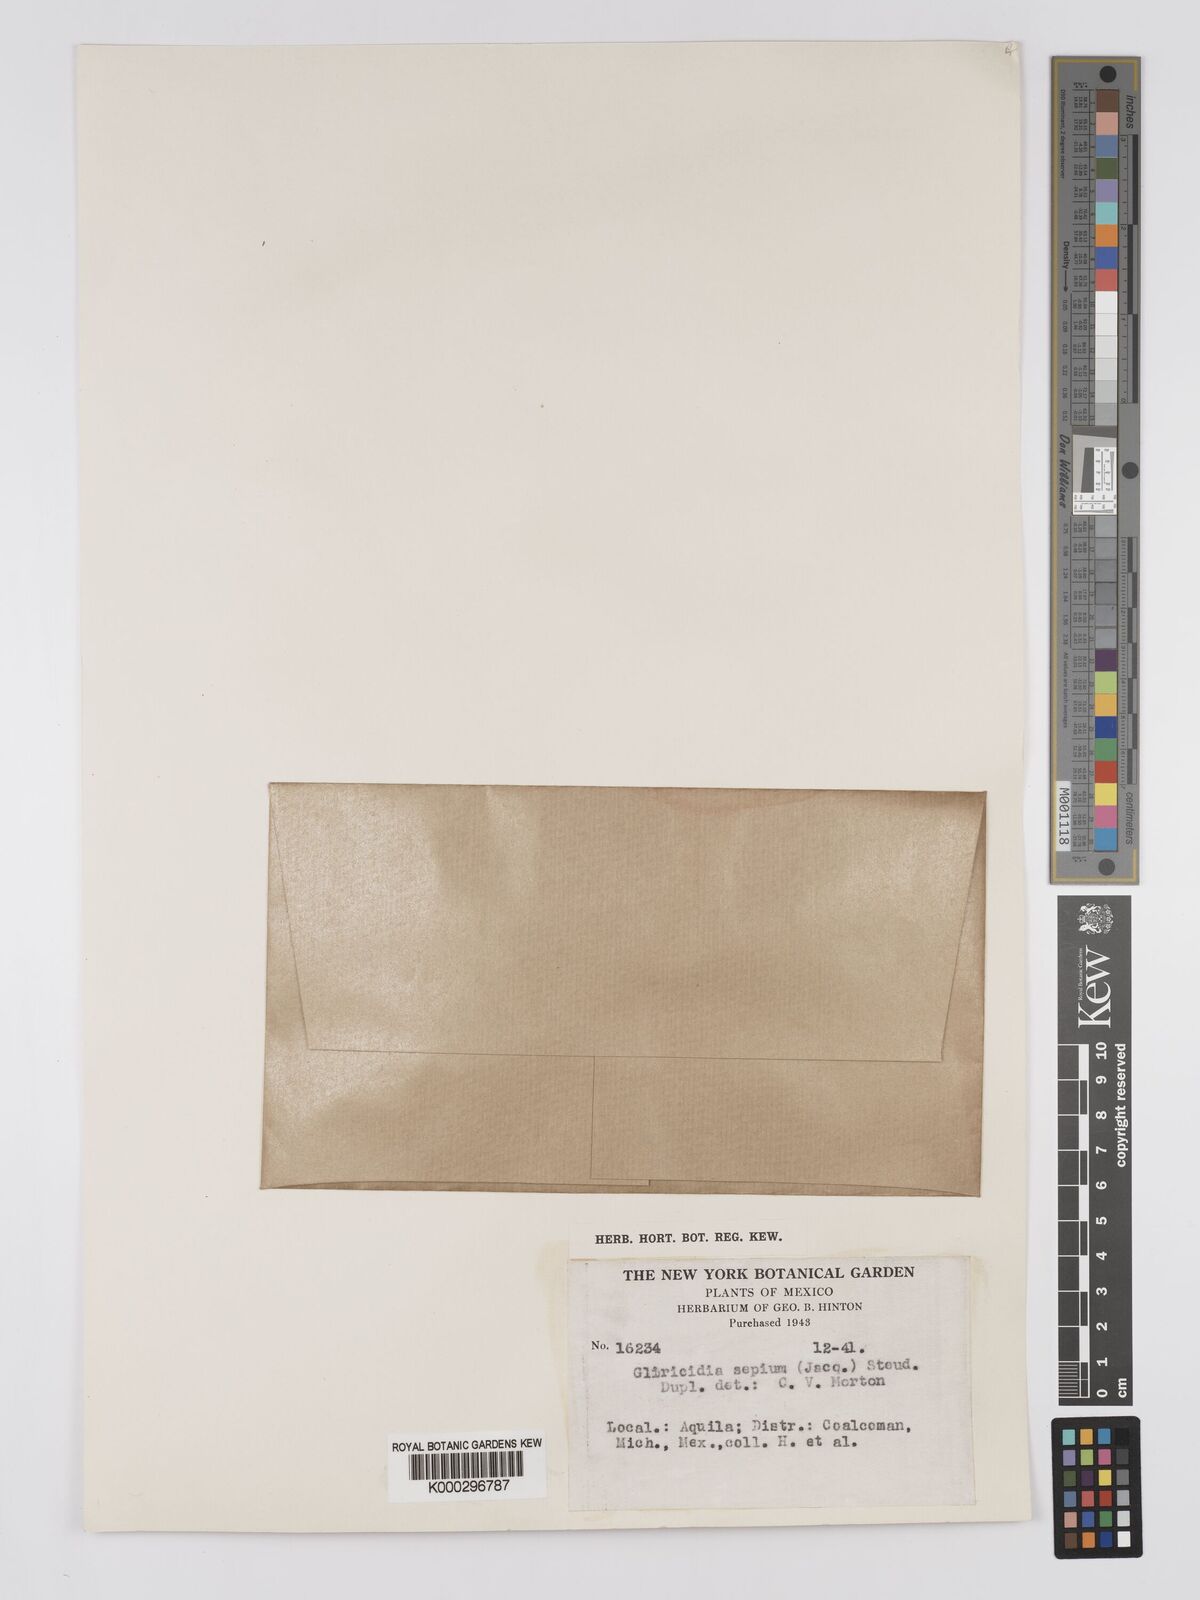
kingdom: Plantae
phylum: Tracheophyta
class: Magnoliopsida
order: Fabales
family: Fabaceae
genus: Gliricidia
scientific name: Gliricidia sepium
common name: Quickstick
